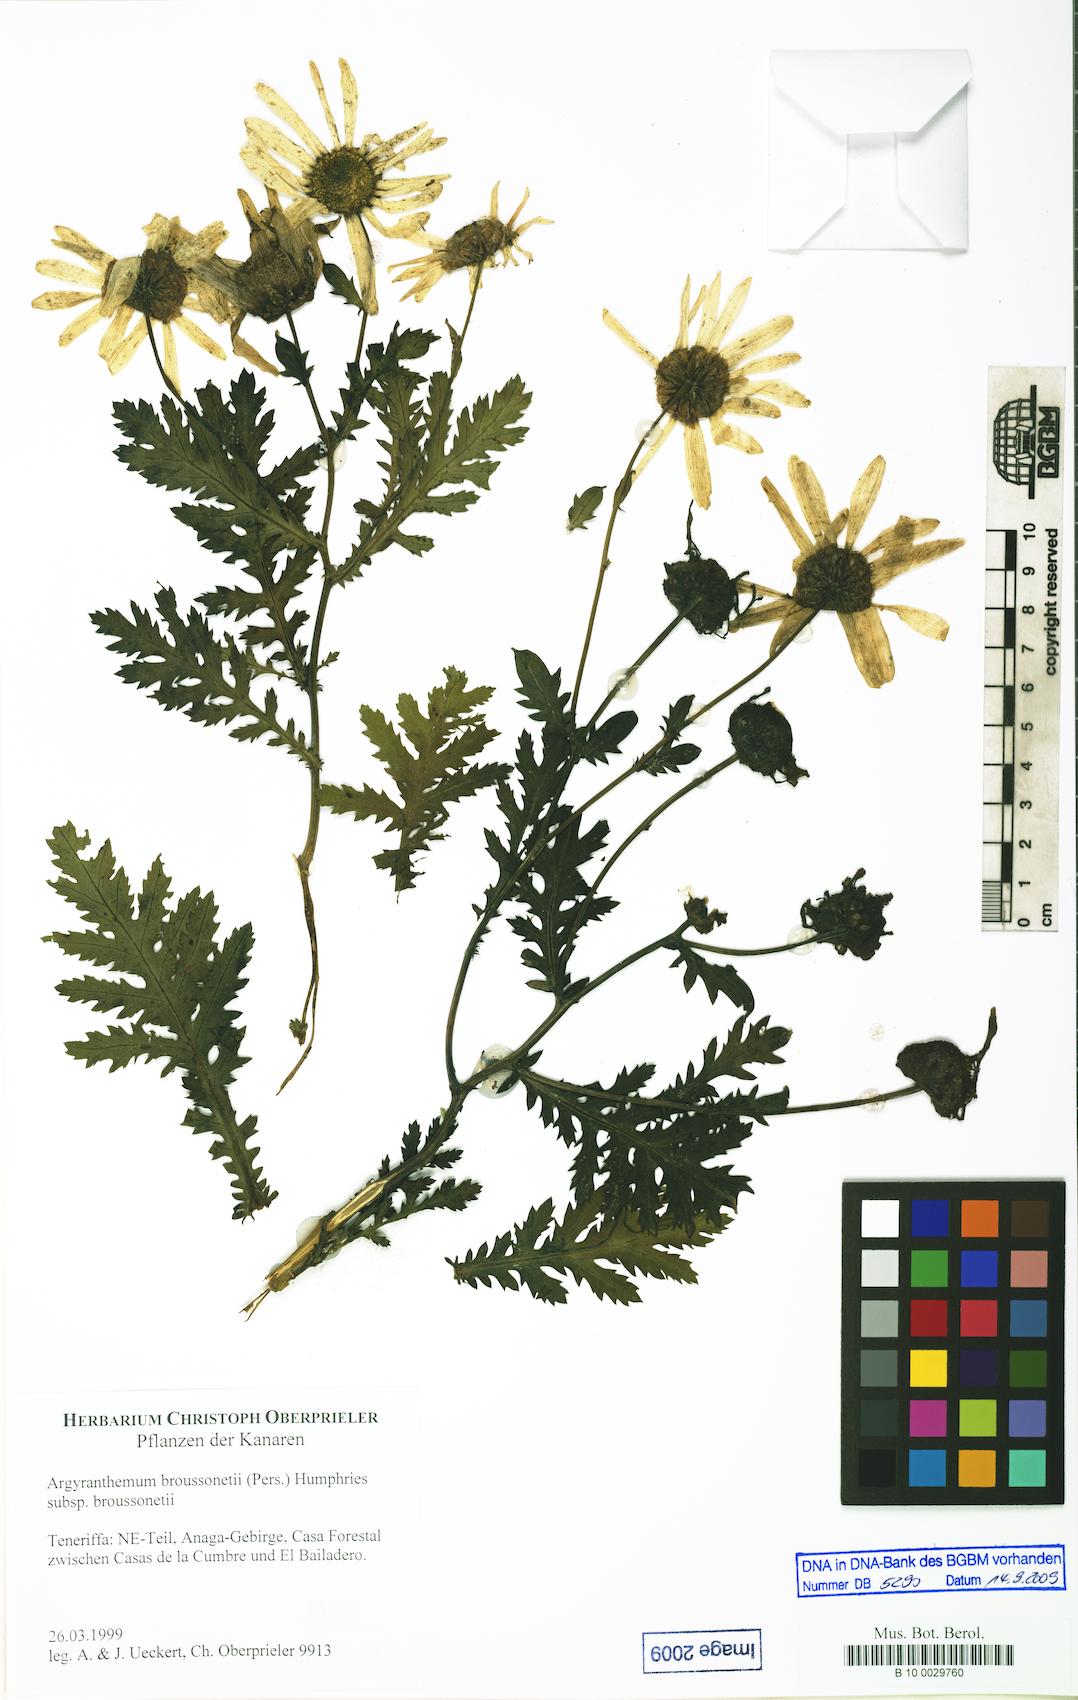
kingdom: Plantae
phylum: Tracheophyta
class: Magnoliopsida
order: Asterales
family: Asteraceae
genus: Argyranthemum
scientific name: Argyranthemum broussonetii
